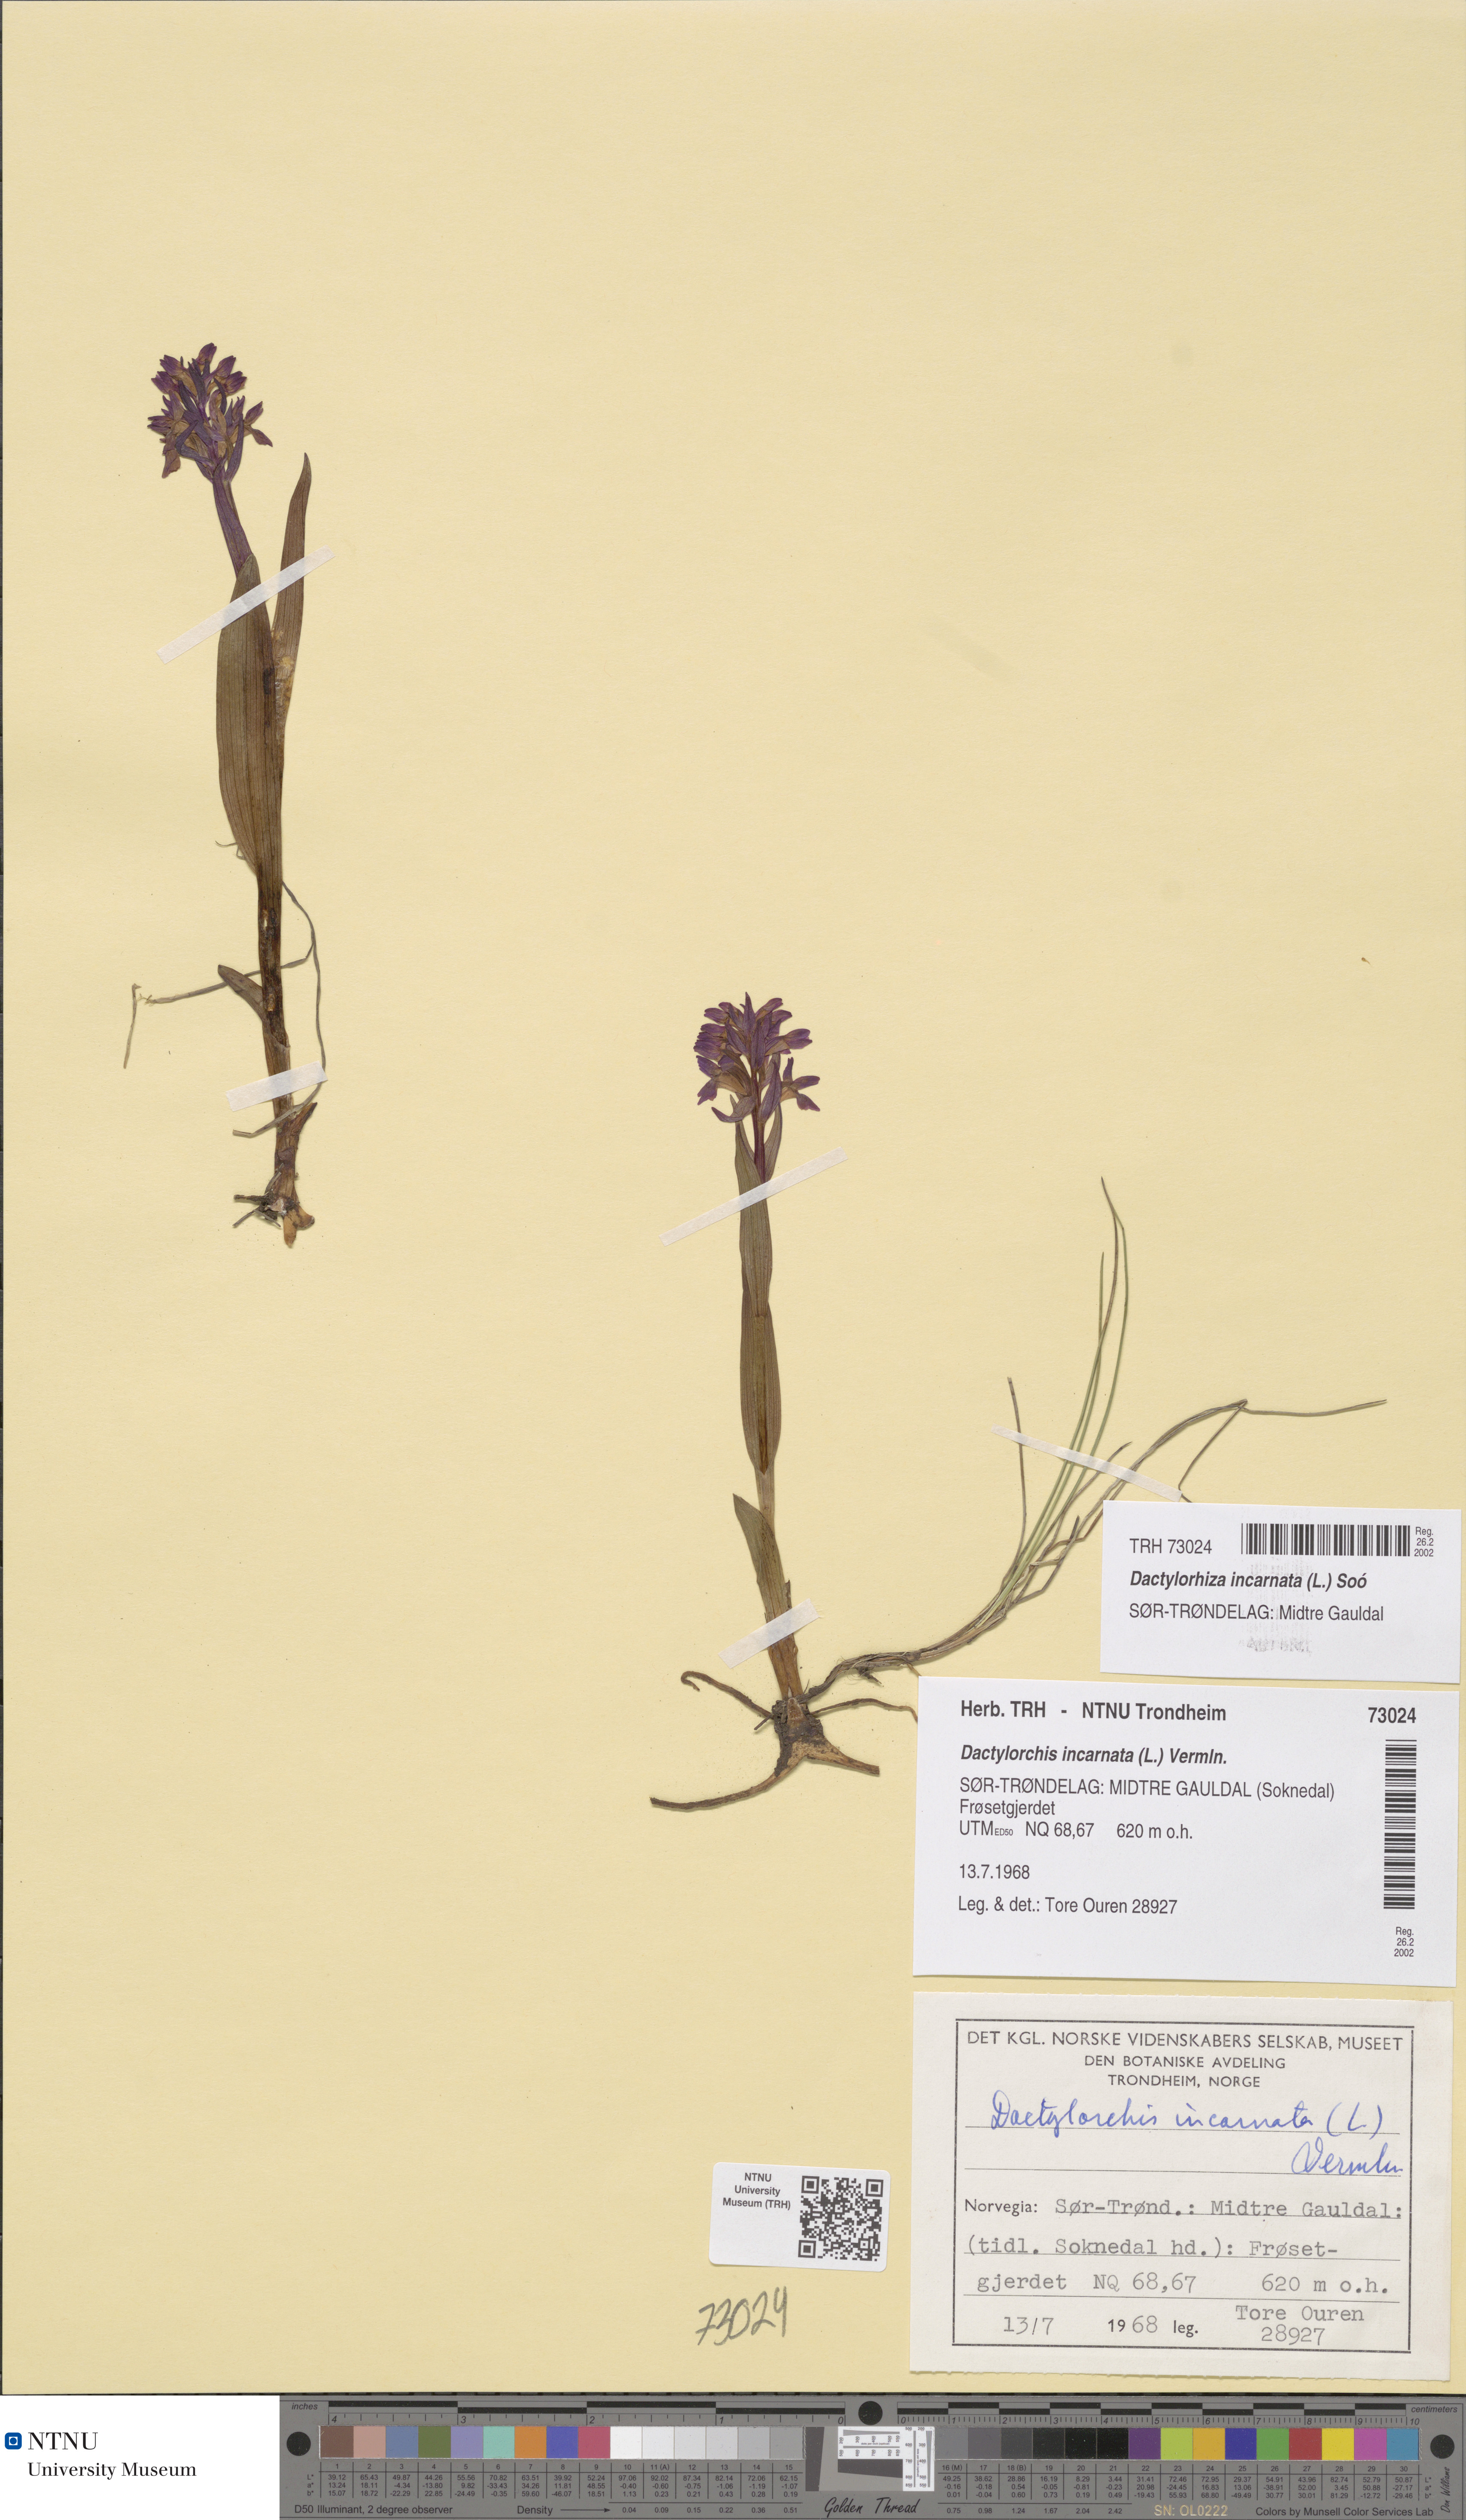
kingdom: Plantae
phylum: Tracheophyta
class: Liliopsida
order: Asparagales
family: Orchidaceae
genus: Dactylorhiza
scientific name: Dactylorhiza incarnata
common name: Early marsh-orchid
